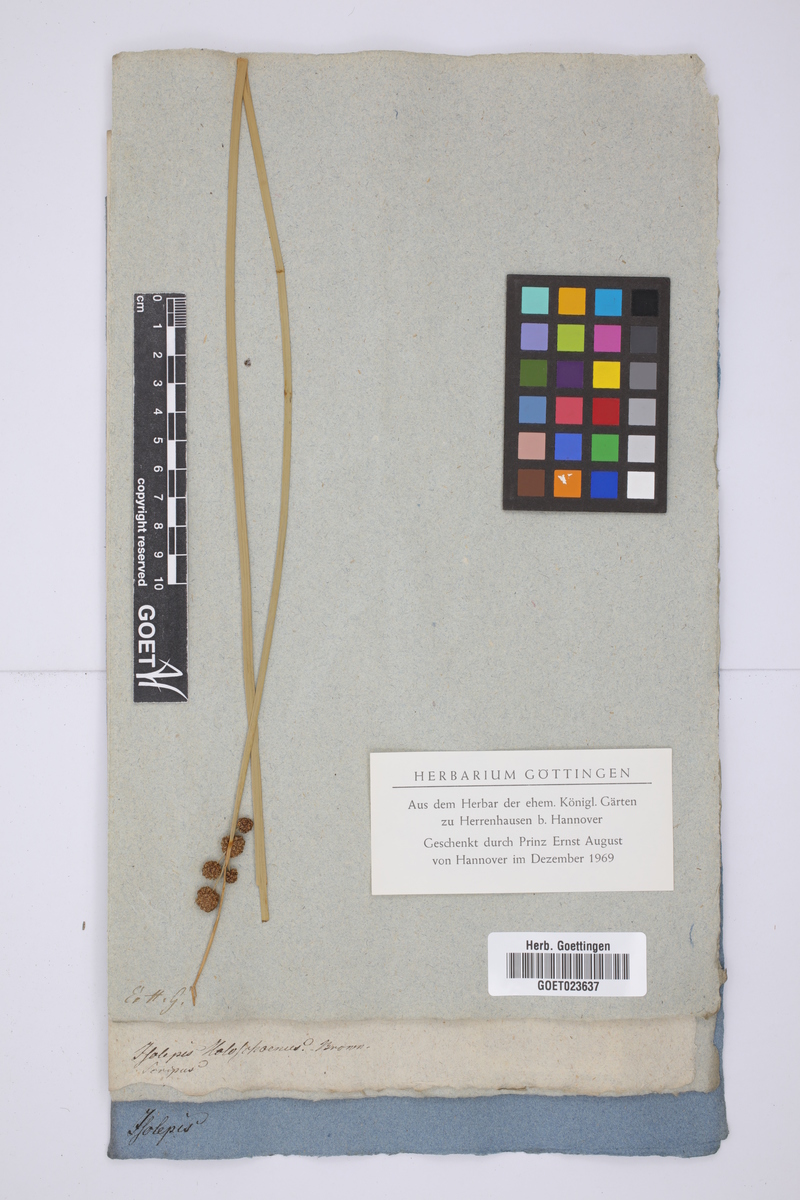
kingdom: Plantae
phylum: Tracheophyta
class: Liliopsida
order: Poales
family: Cyperaceae
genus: Scirpoides
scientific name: Scirpoides holoschoenus
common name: Round-headed club-rush
